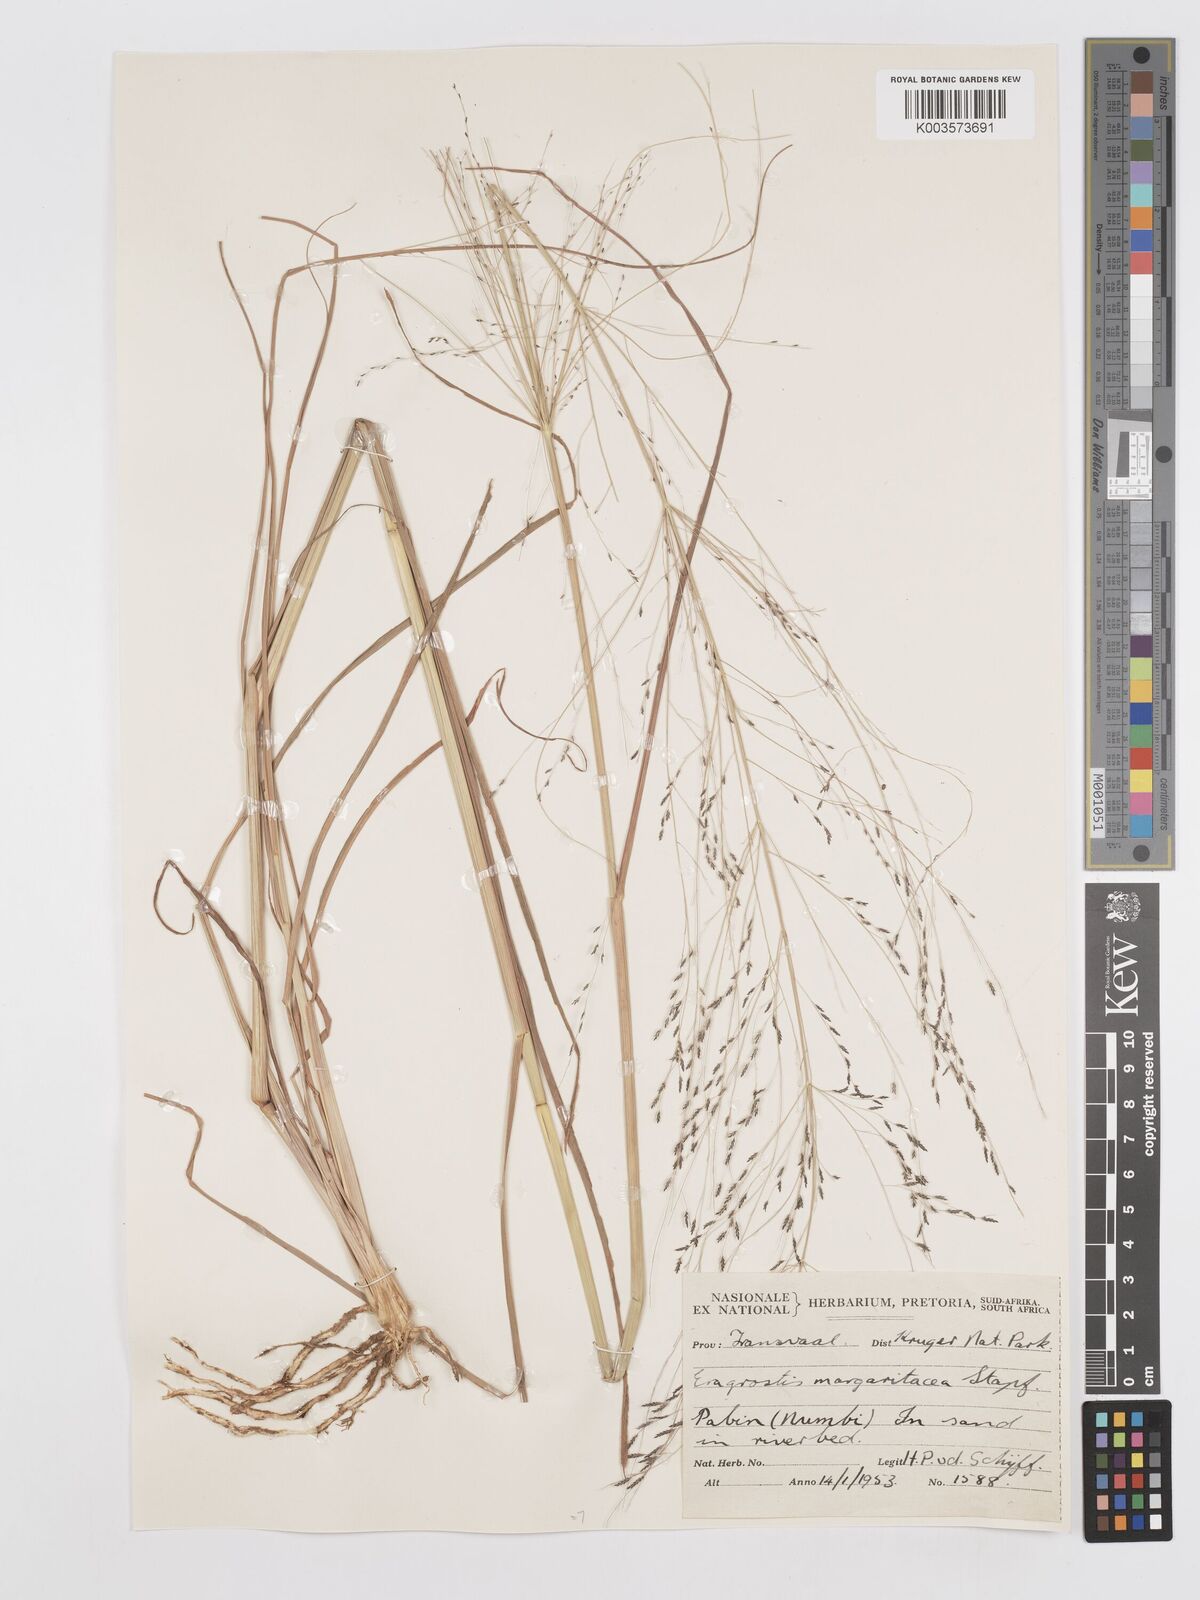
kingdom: Plantae
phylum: Tracheophyta
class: Liliopsida
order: Poales
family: Poaceae
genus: Eragrostis
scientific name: Eragrostis rotifer
